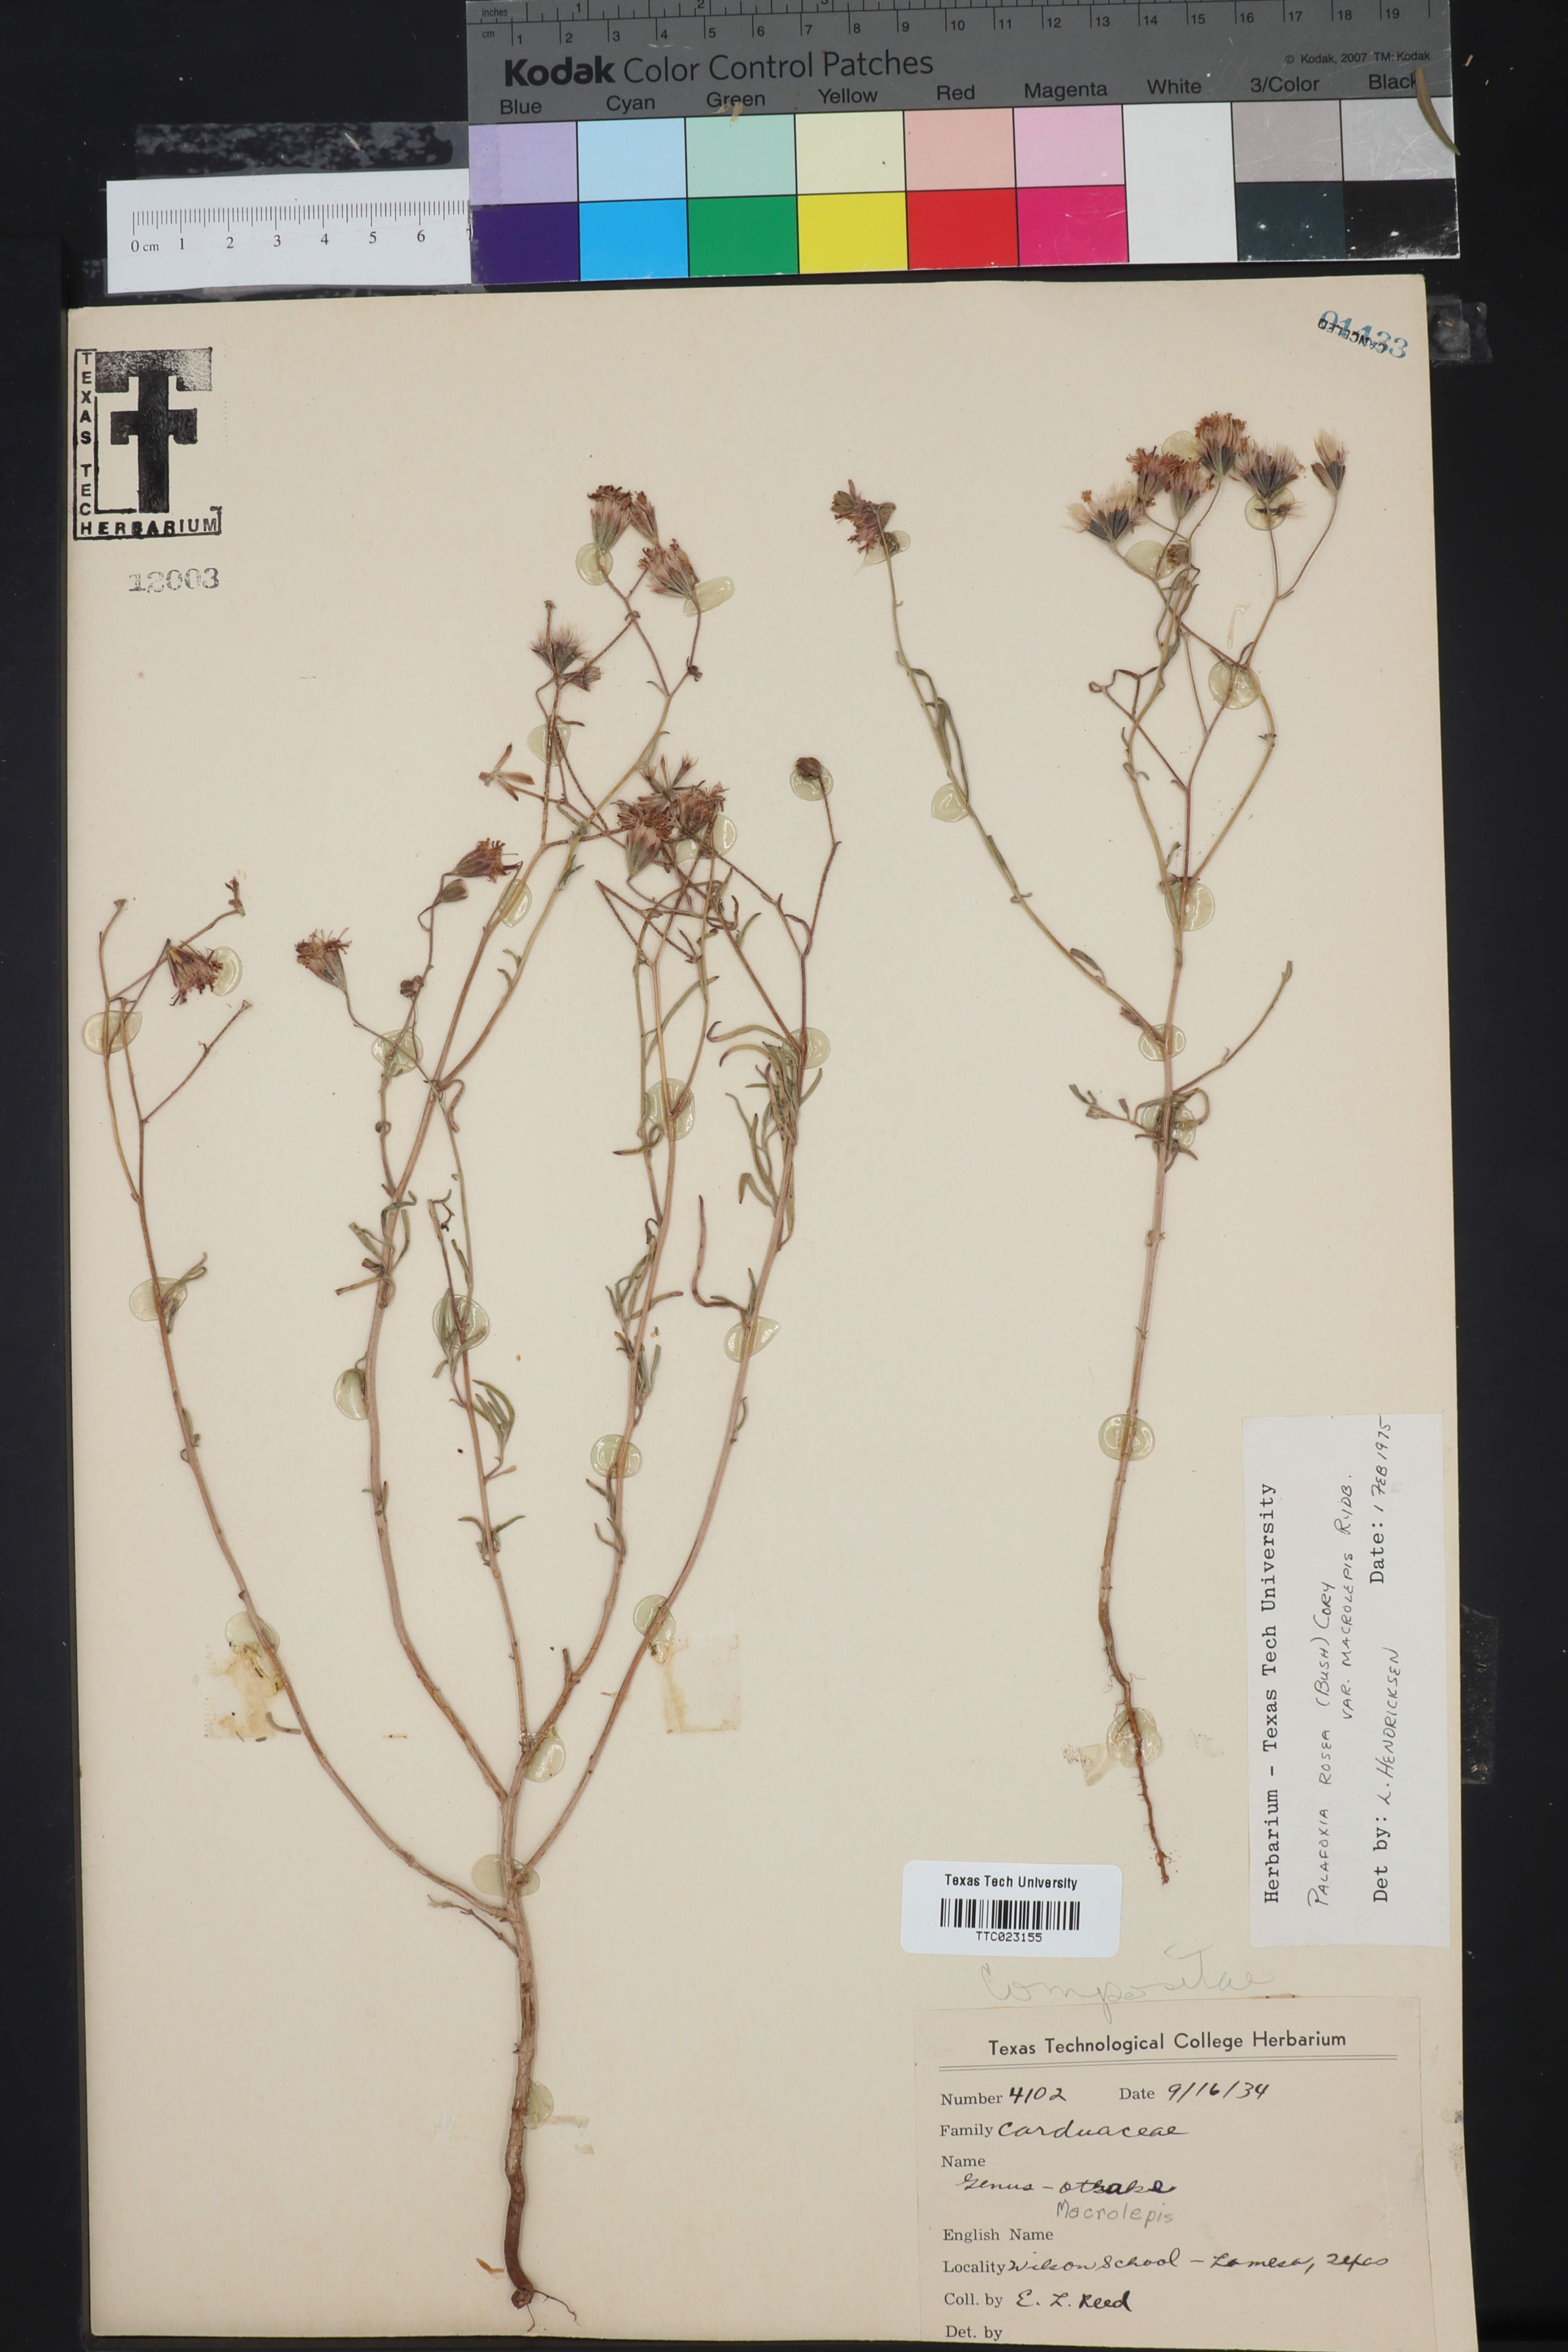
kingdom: Plantae
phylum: Tracheophyta
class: Magnoliopsida
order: Asterales
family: Asteraceae
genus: Palafoxia
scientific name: Palafoxia rosea
